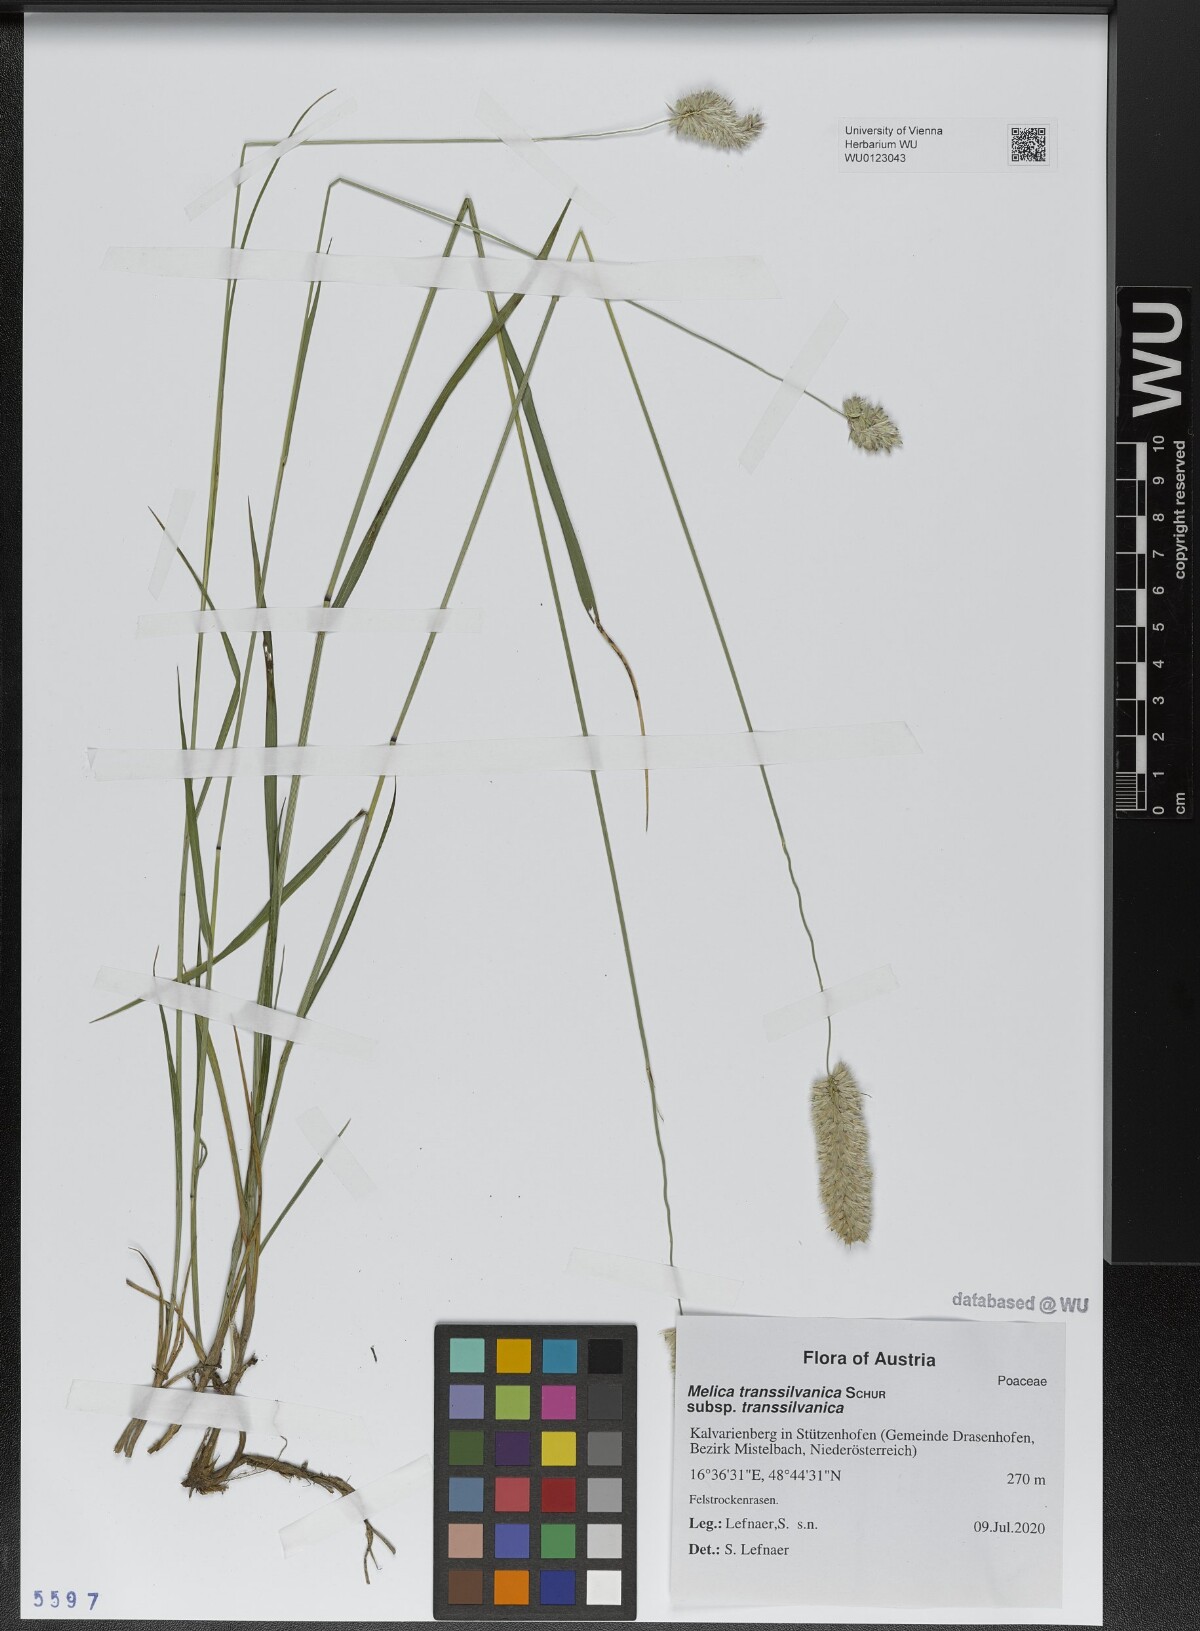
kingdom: Plantae
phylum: Tracheophyta
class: Liliopsida
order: Poales
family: Poaceae
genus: Melica
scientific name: Melica transsilvanica
